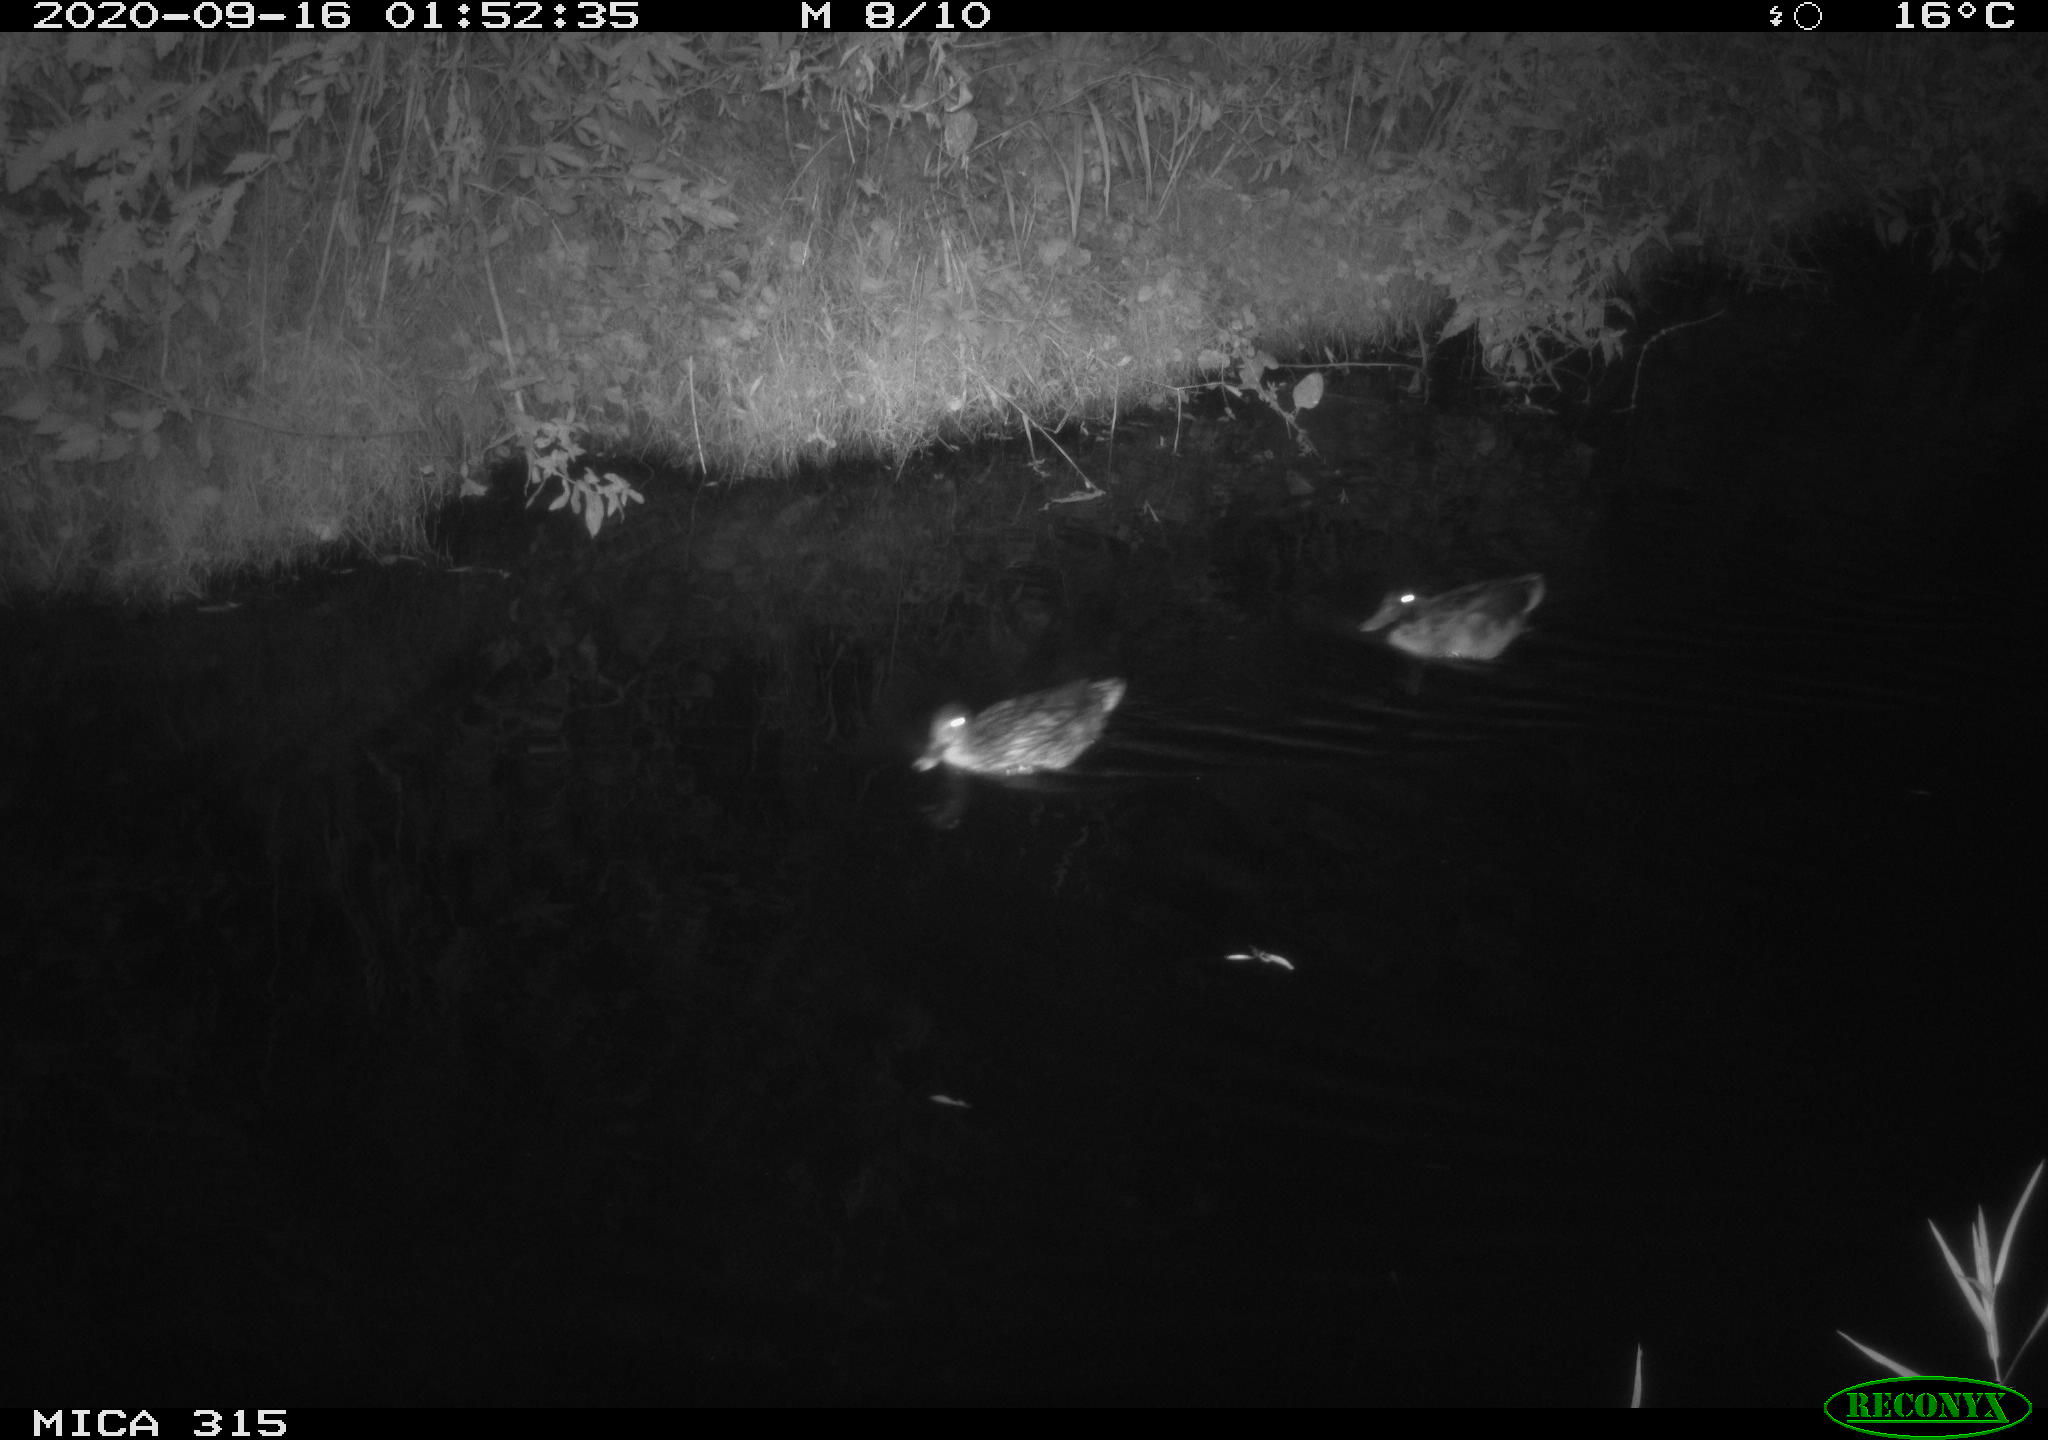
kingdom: Animalia
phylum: Chordata
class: Aves
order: Anseriformes
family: Anatidae
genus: Anas
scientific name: Anas platyrhynchos
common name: Mallard
